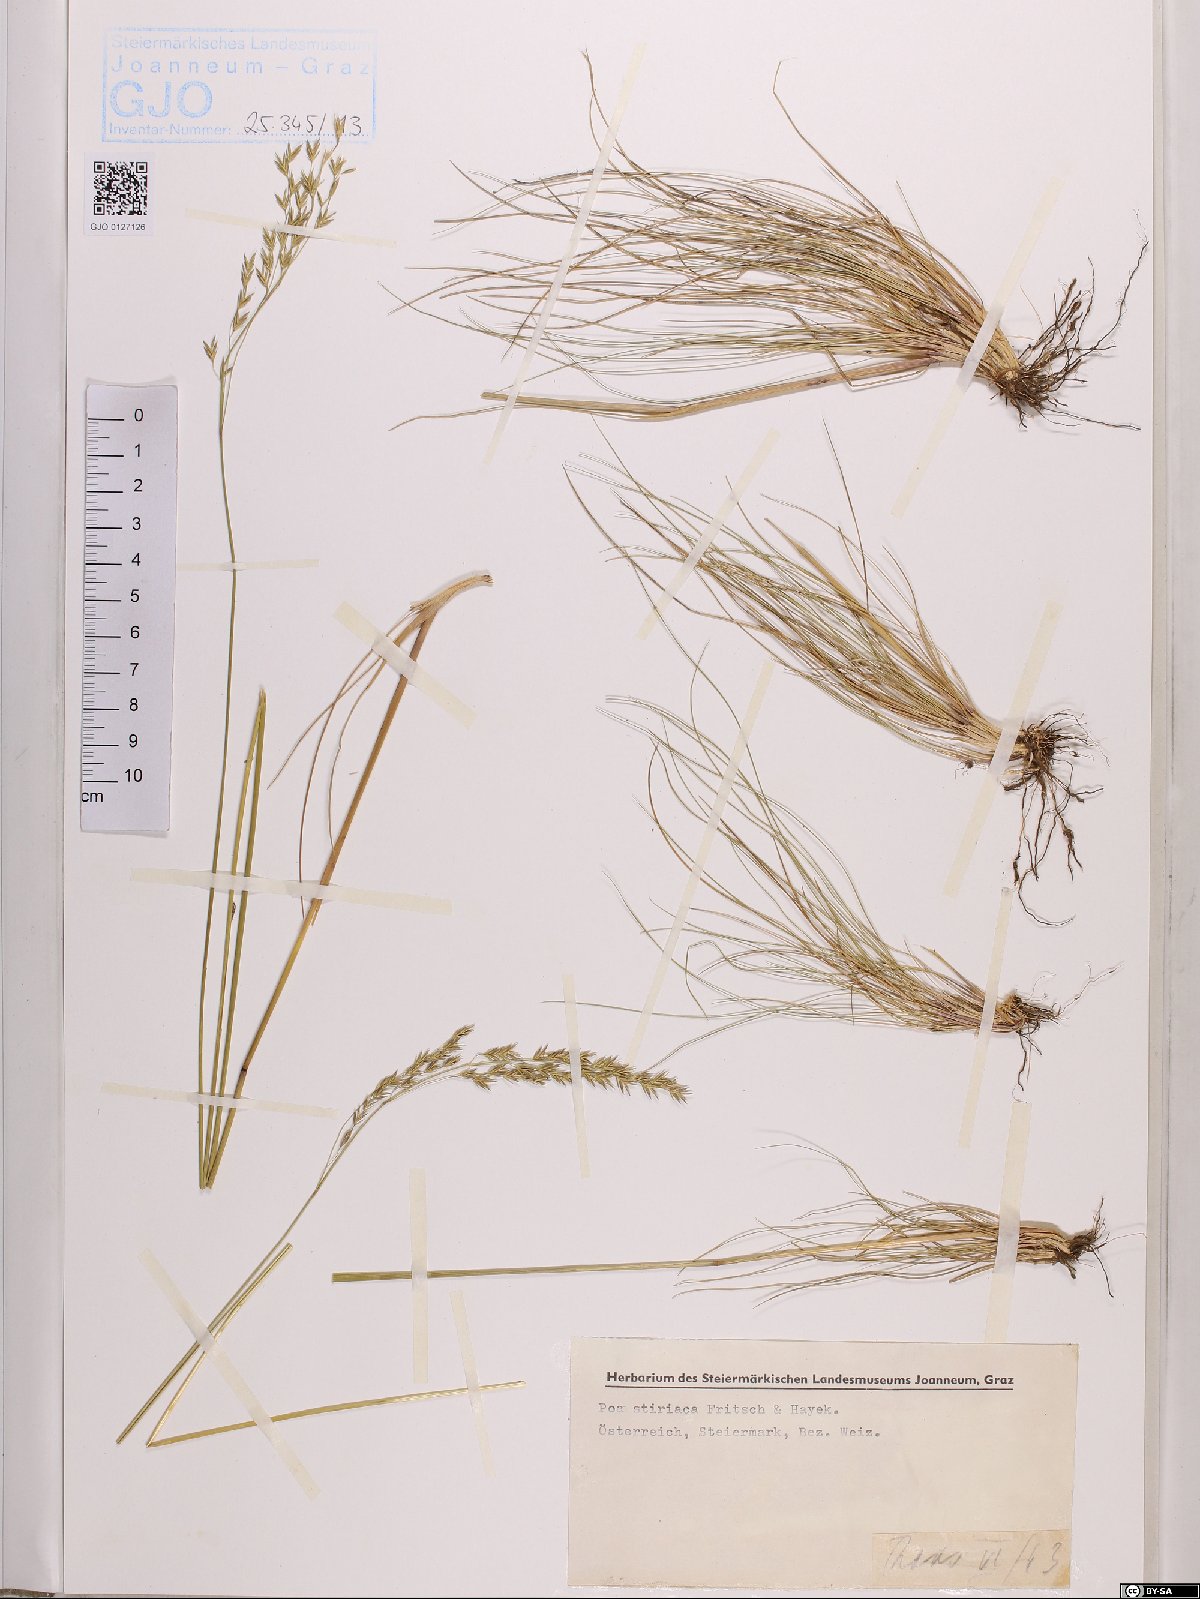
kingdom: Plantae
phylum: Tracheophyta
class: Liliopsida
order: Poales
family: Poaceae
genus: Poa
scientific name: Poa stiriaca
